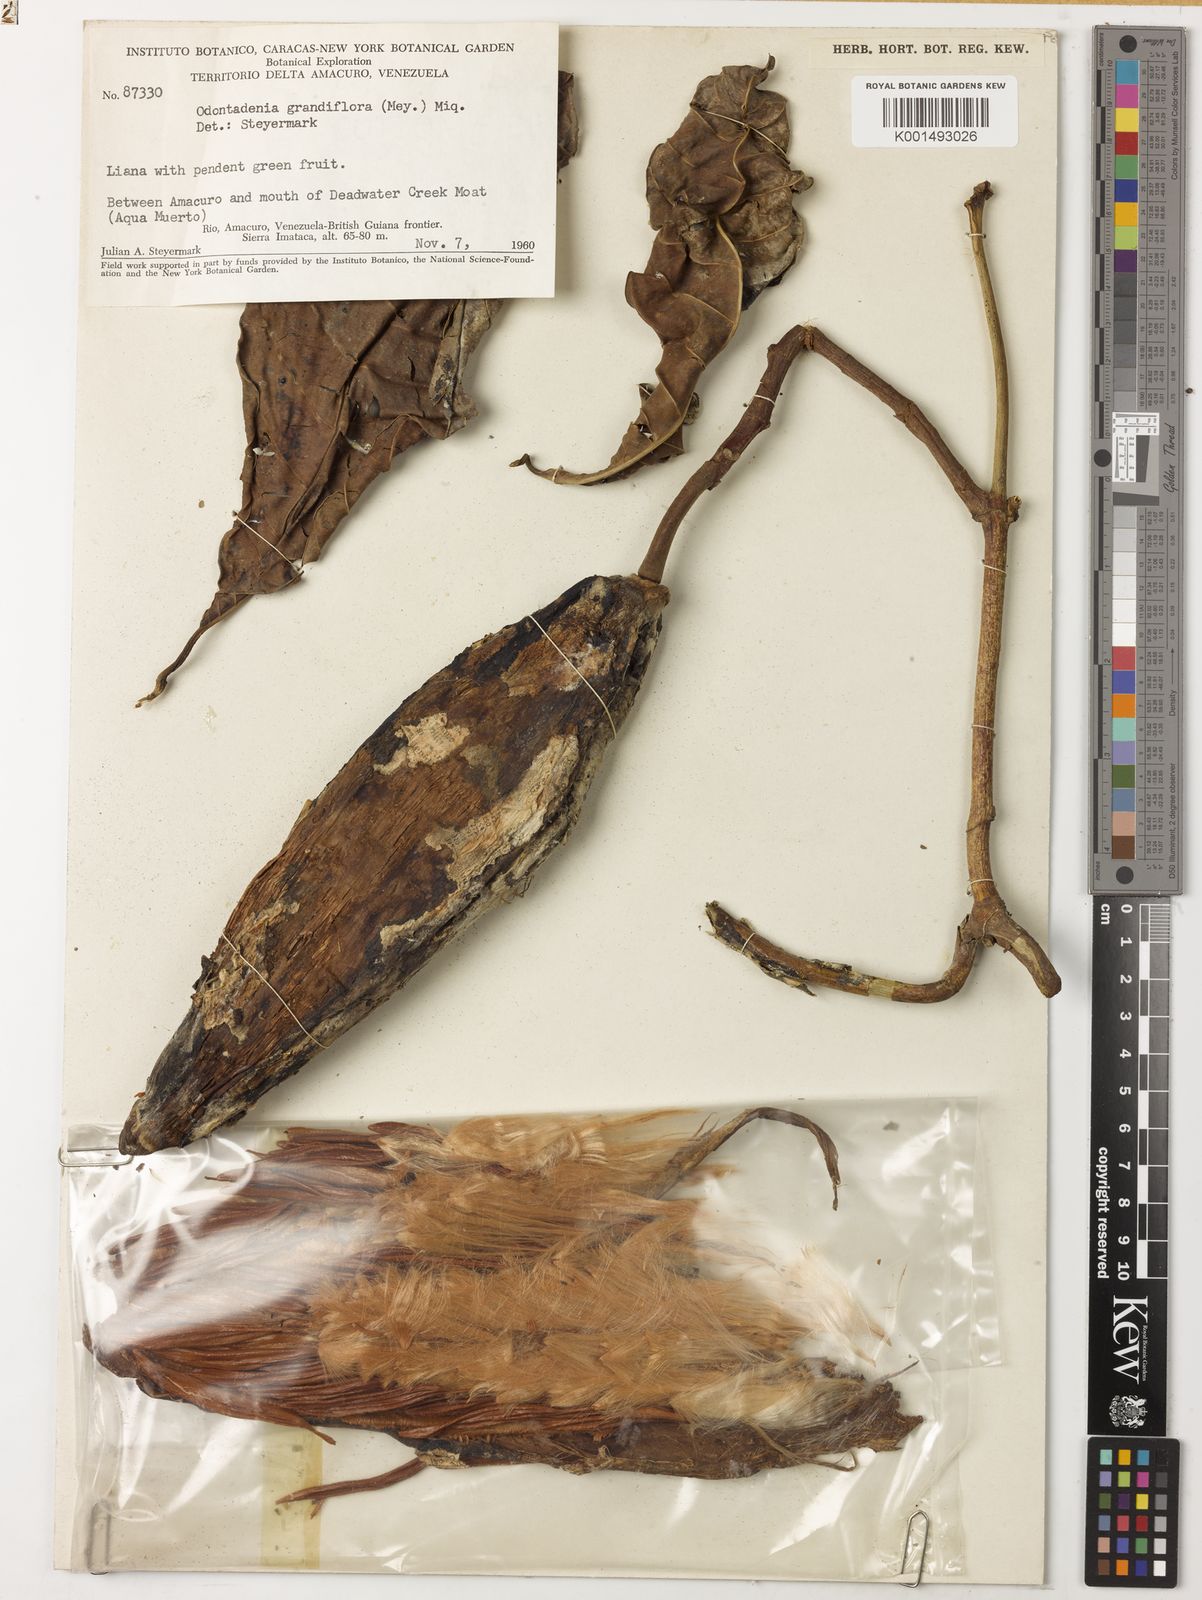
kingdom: Plantae
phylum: Tracheophyta
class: Magnoliopsida
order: Gentianales
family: Apocynaceae
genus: Odontadenia
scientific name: Odontadenia semidigyna
